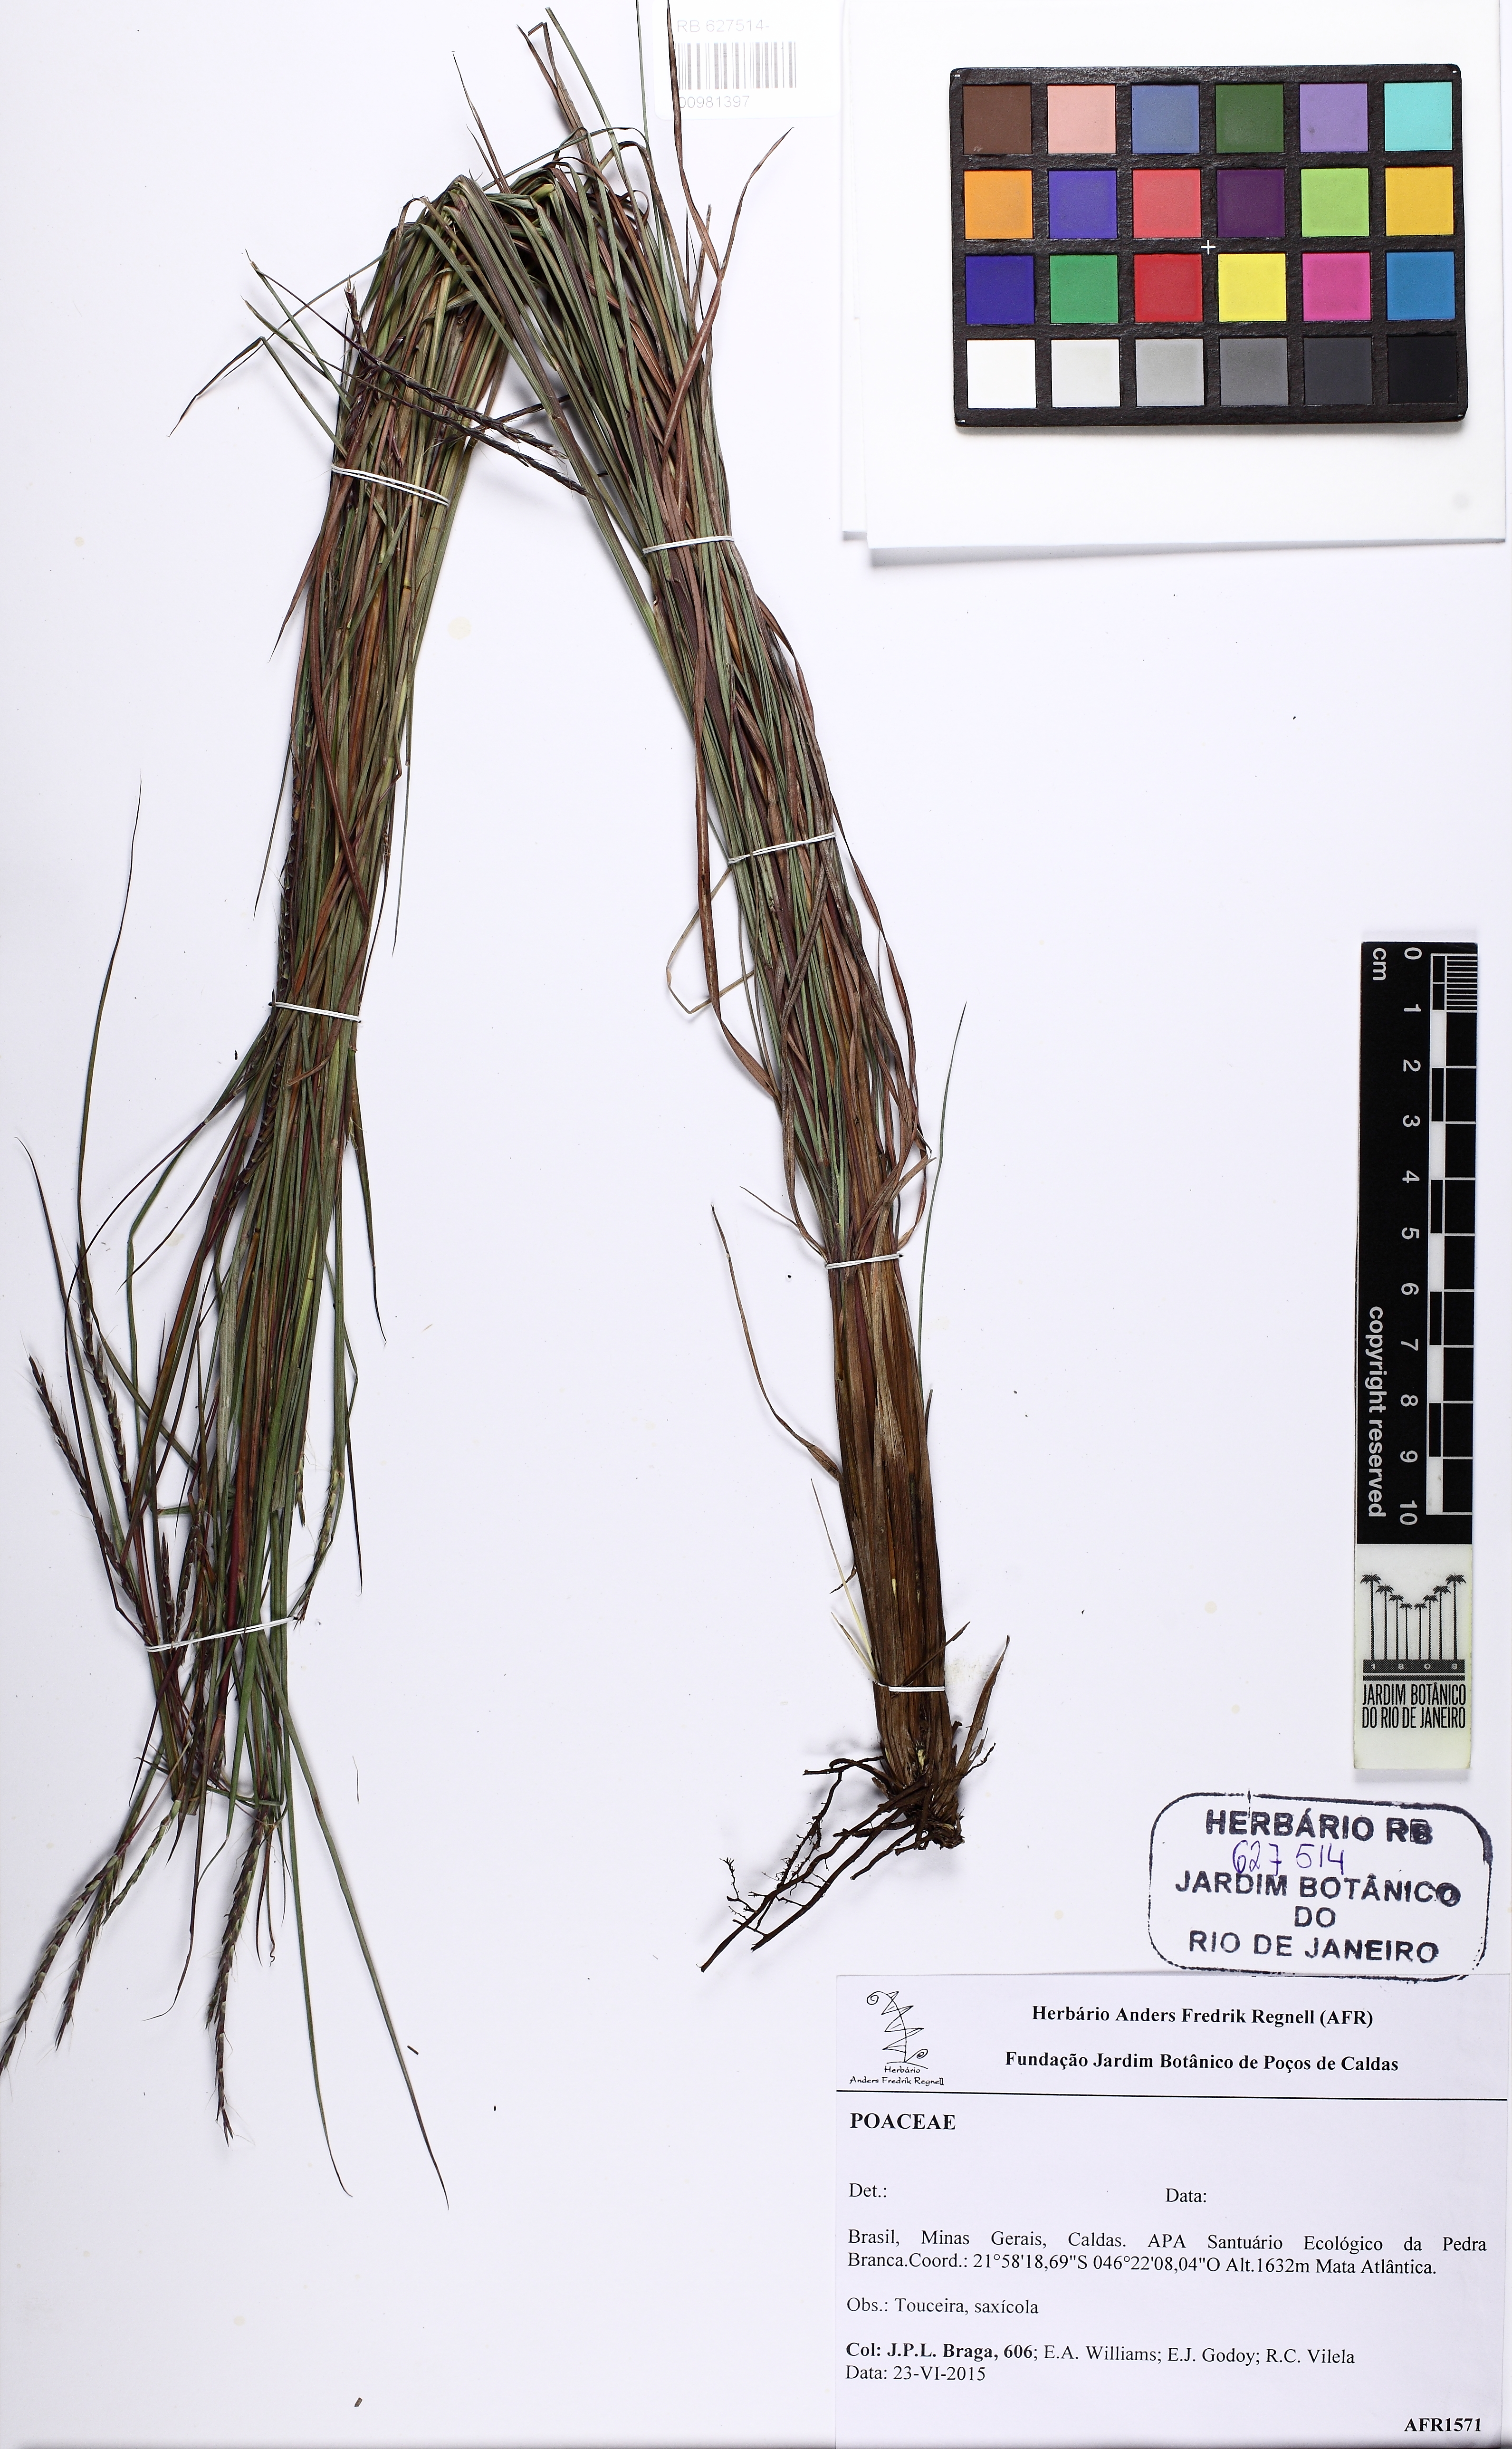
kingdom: Plantae
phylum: Tracheophyta
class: Liliopsida
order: Poales
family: Poaceae
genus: Schizachyrium
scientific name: Schizachyrium
